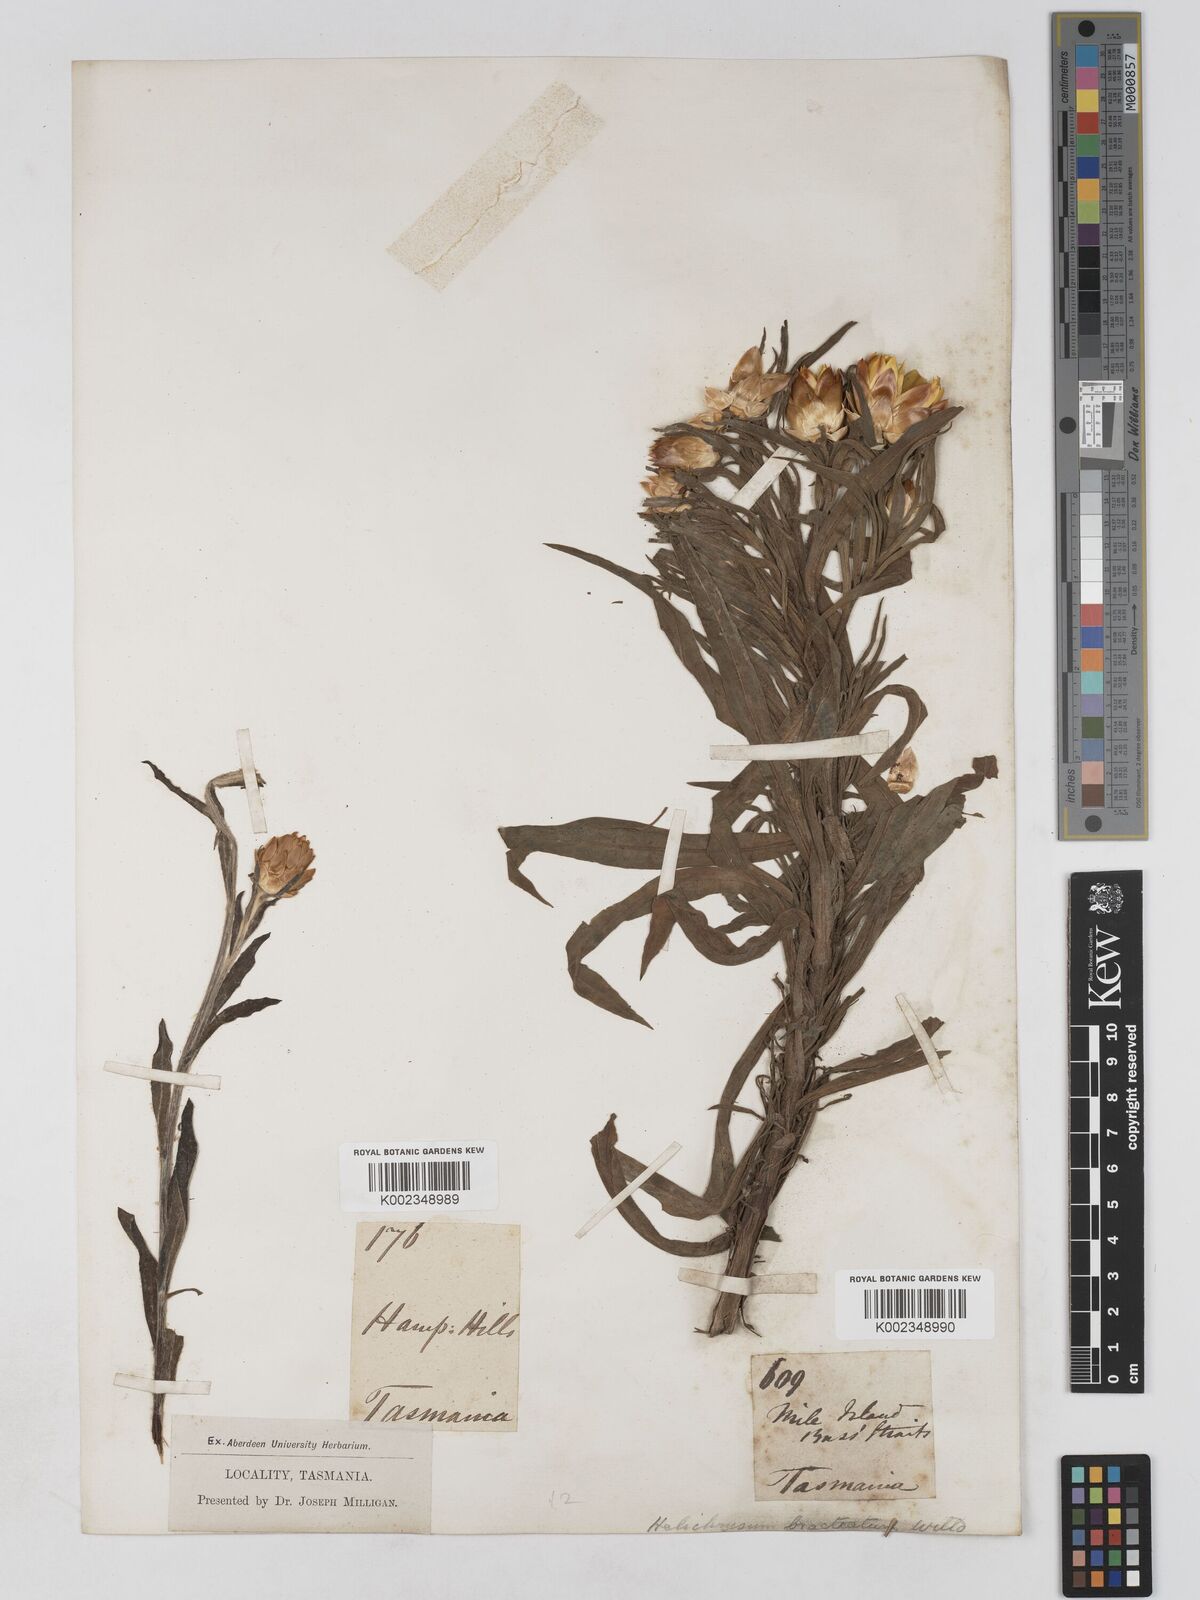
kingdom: Plantae
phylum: Tracheophyta
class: Magnoliopsida
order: Asterales
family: Asteraceae
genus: Xerochrysum
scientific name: Xerochrysum bracteatum
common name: Bracted strawflower
